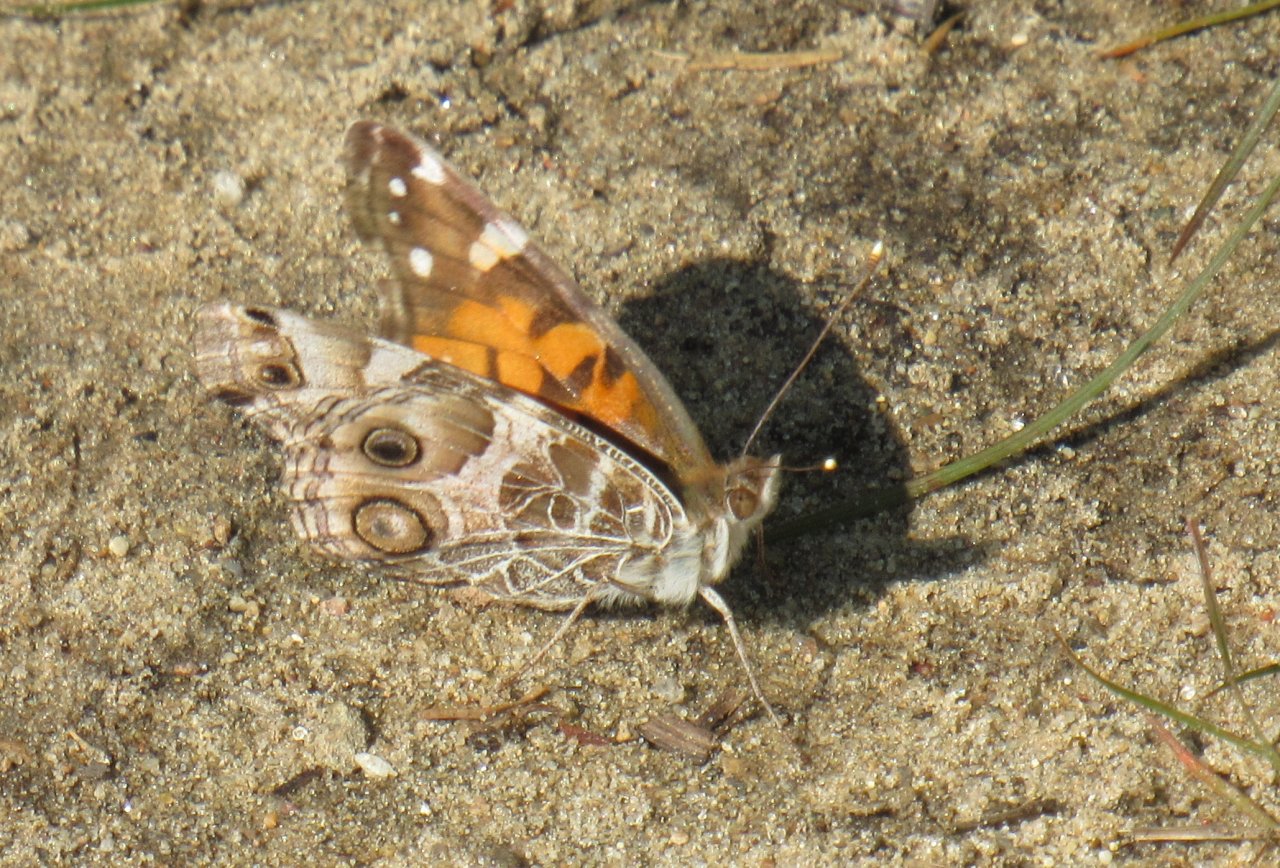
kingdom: Animalia
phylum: Arthropoda
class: Insecta
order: Lepidoptera
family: Nymphalidae
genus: Vanessa
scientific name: Vanessa virginiensis
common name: American Lady
